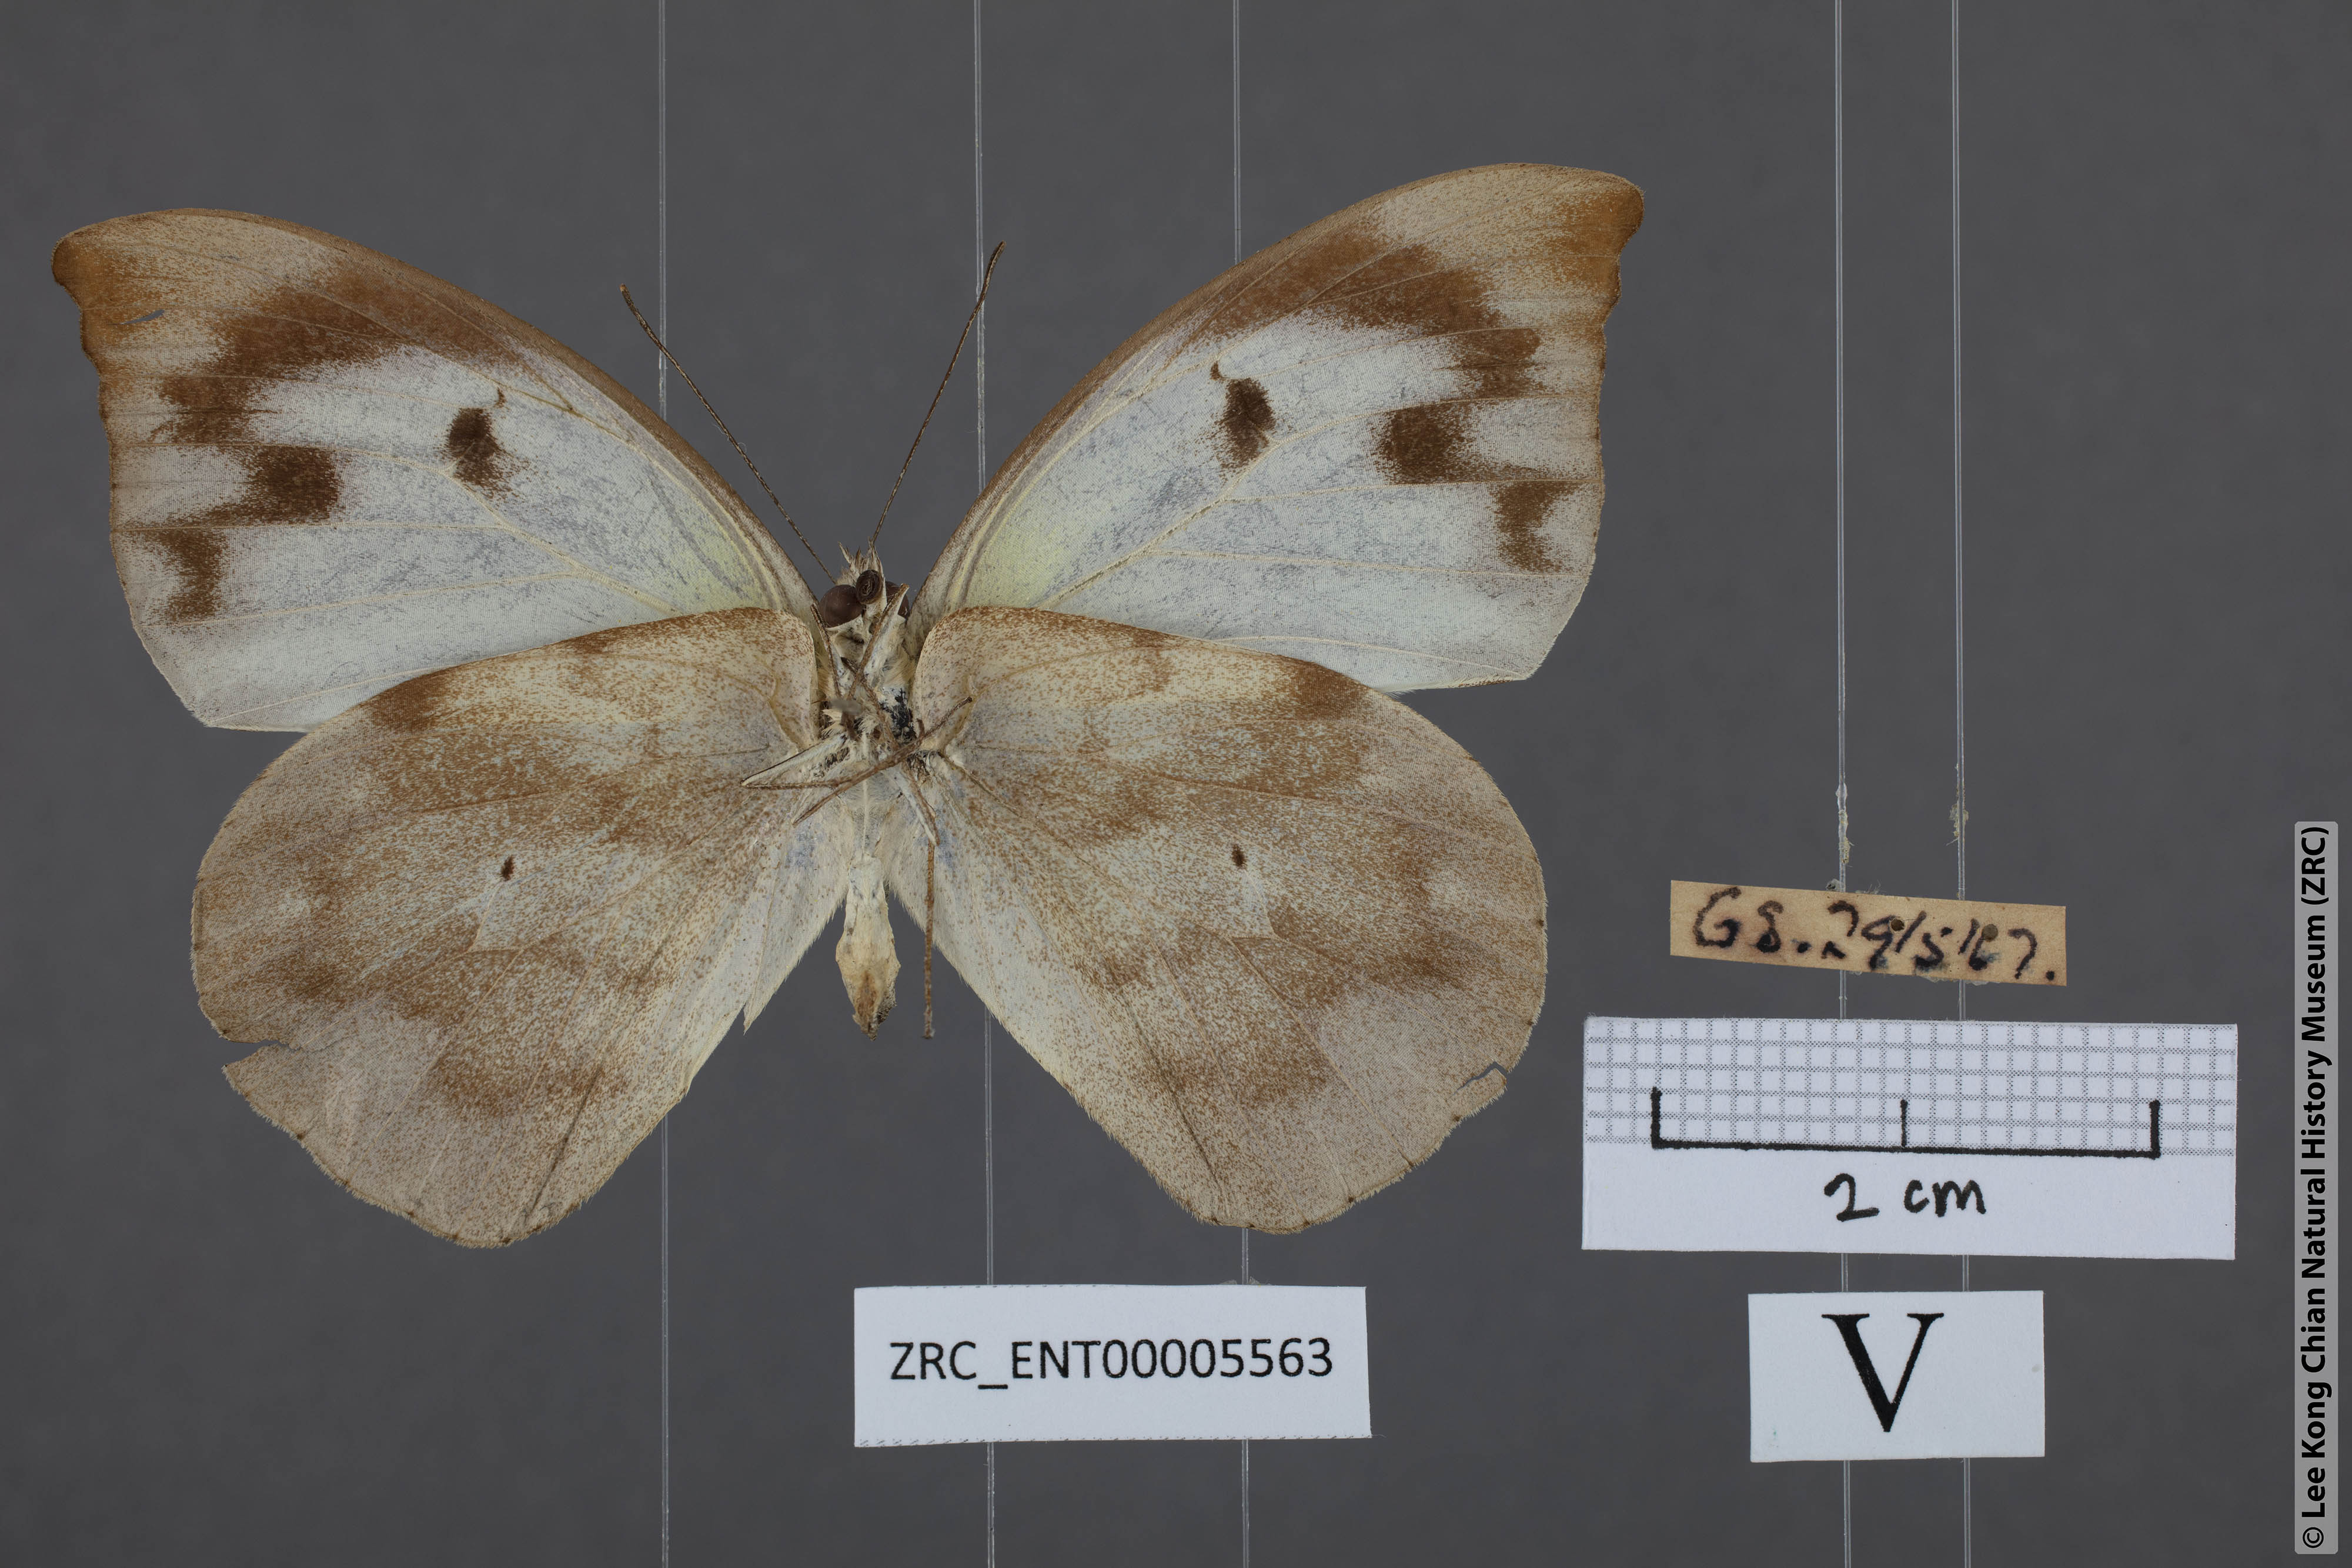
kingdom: Animalia
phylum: Arthropoda
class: Insecta
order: Lepidoptera
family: Pieridae
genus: Appias
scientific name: Appias lalassis
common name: Burmese puffin
